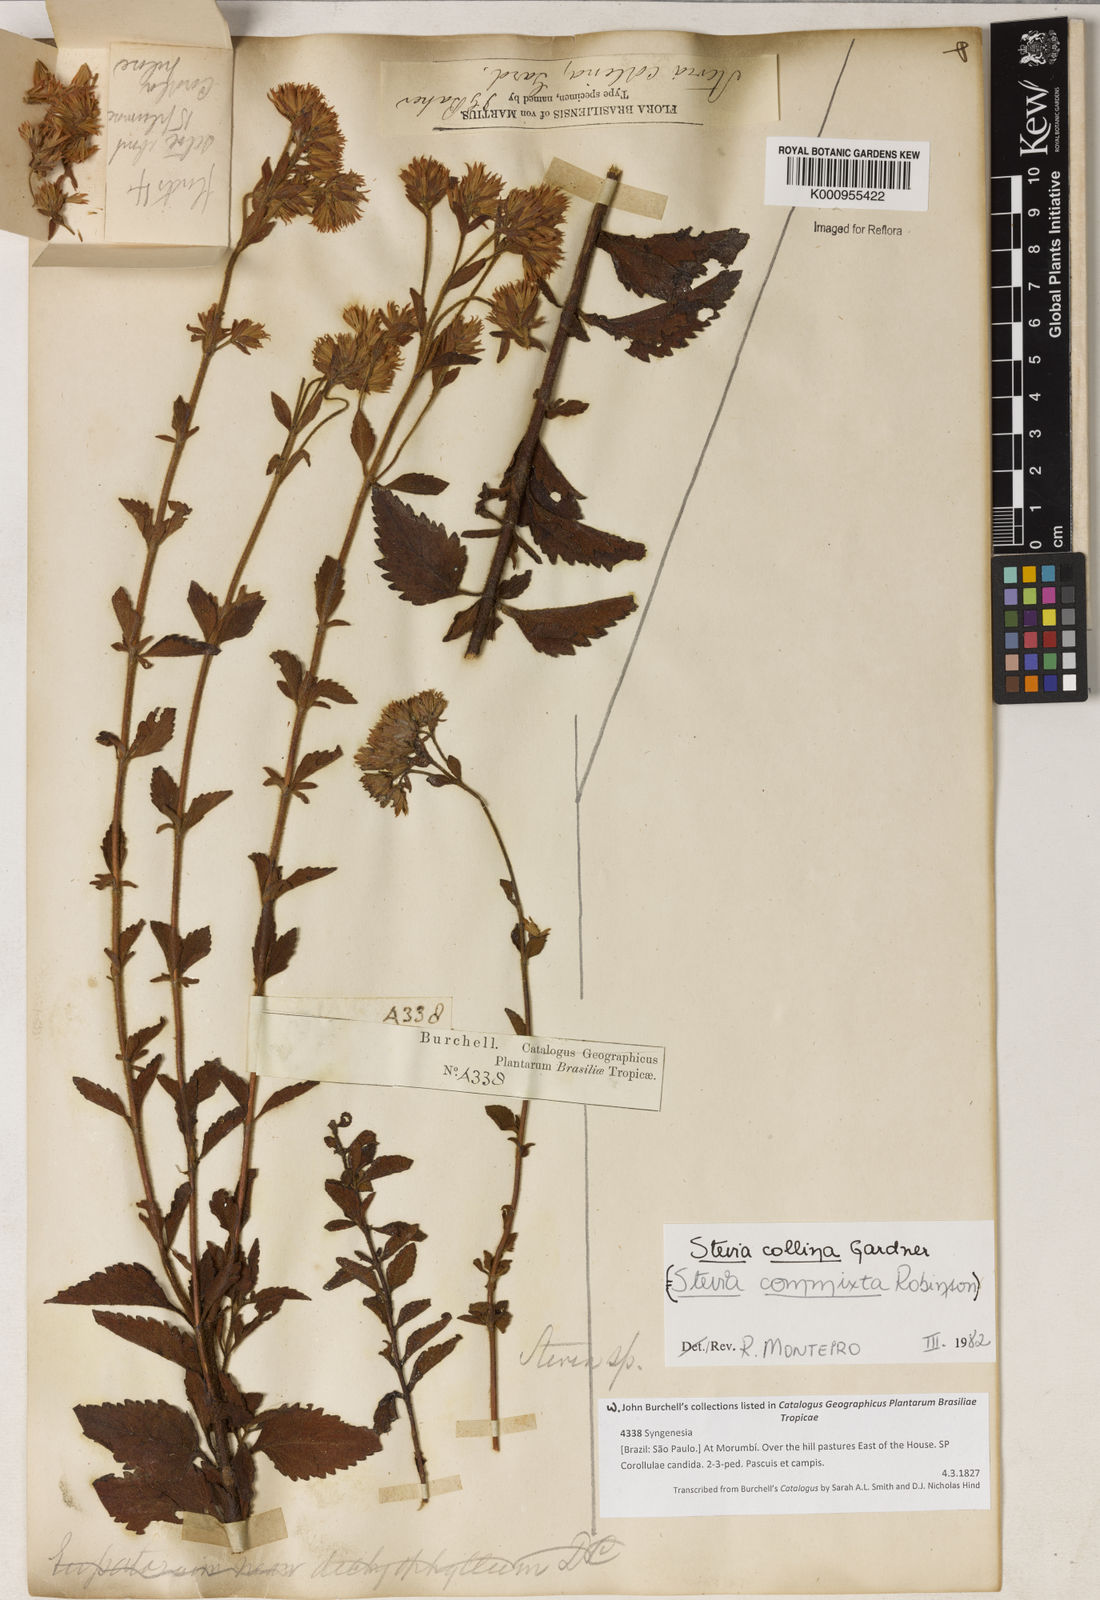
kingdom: Plantae
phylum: Tracheophyta
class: Magnoliopsida
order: Asterales
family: Asteraceae
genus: Stevia
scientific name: Stevia collina
